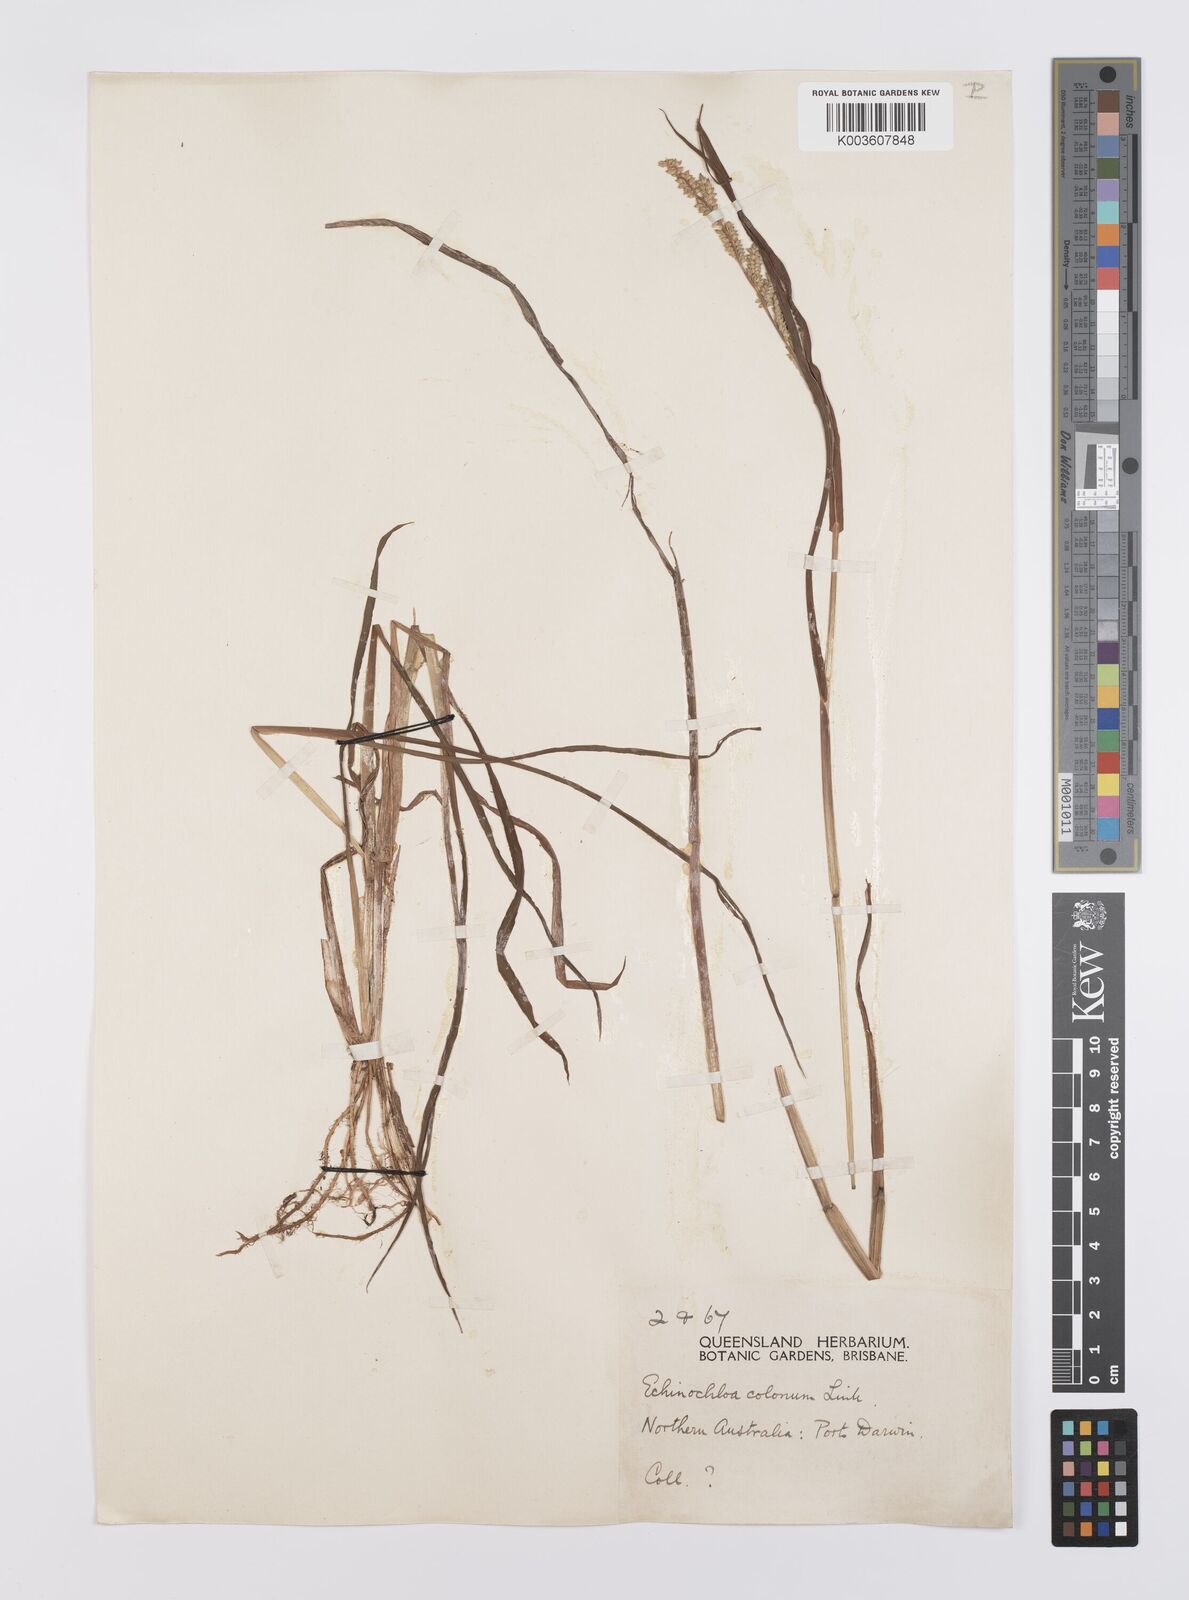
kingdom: Plantae
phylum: Tracheophyta
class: Liliopsida
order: Poales
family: Poaceae
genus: Echinochloa
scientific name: Echinochloa colonum
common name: Jungle rice
